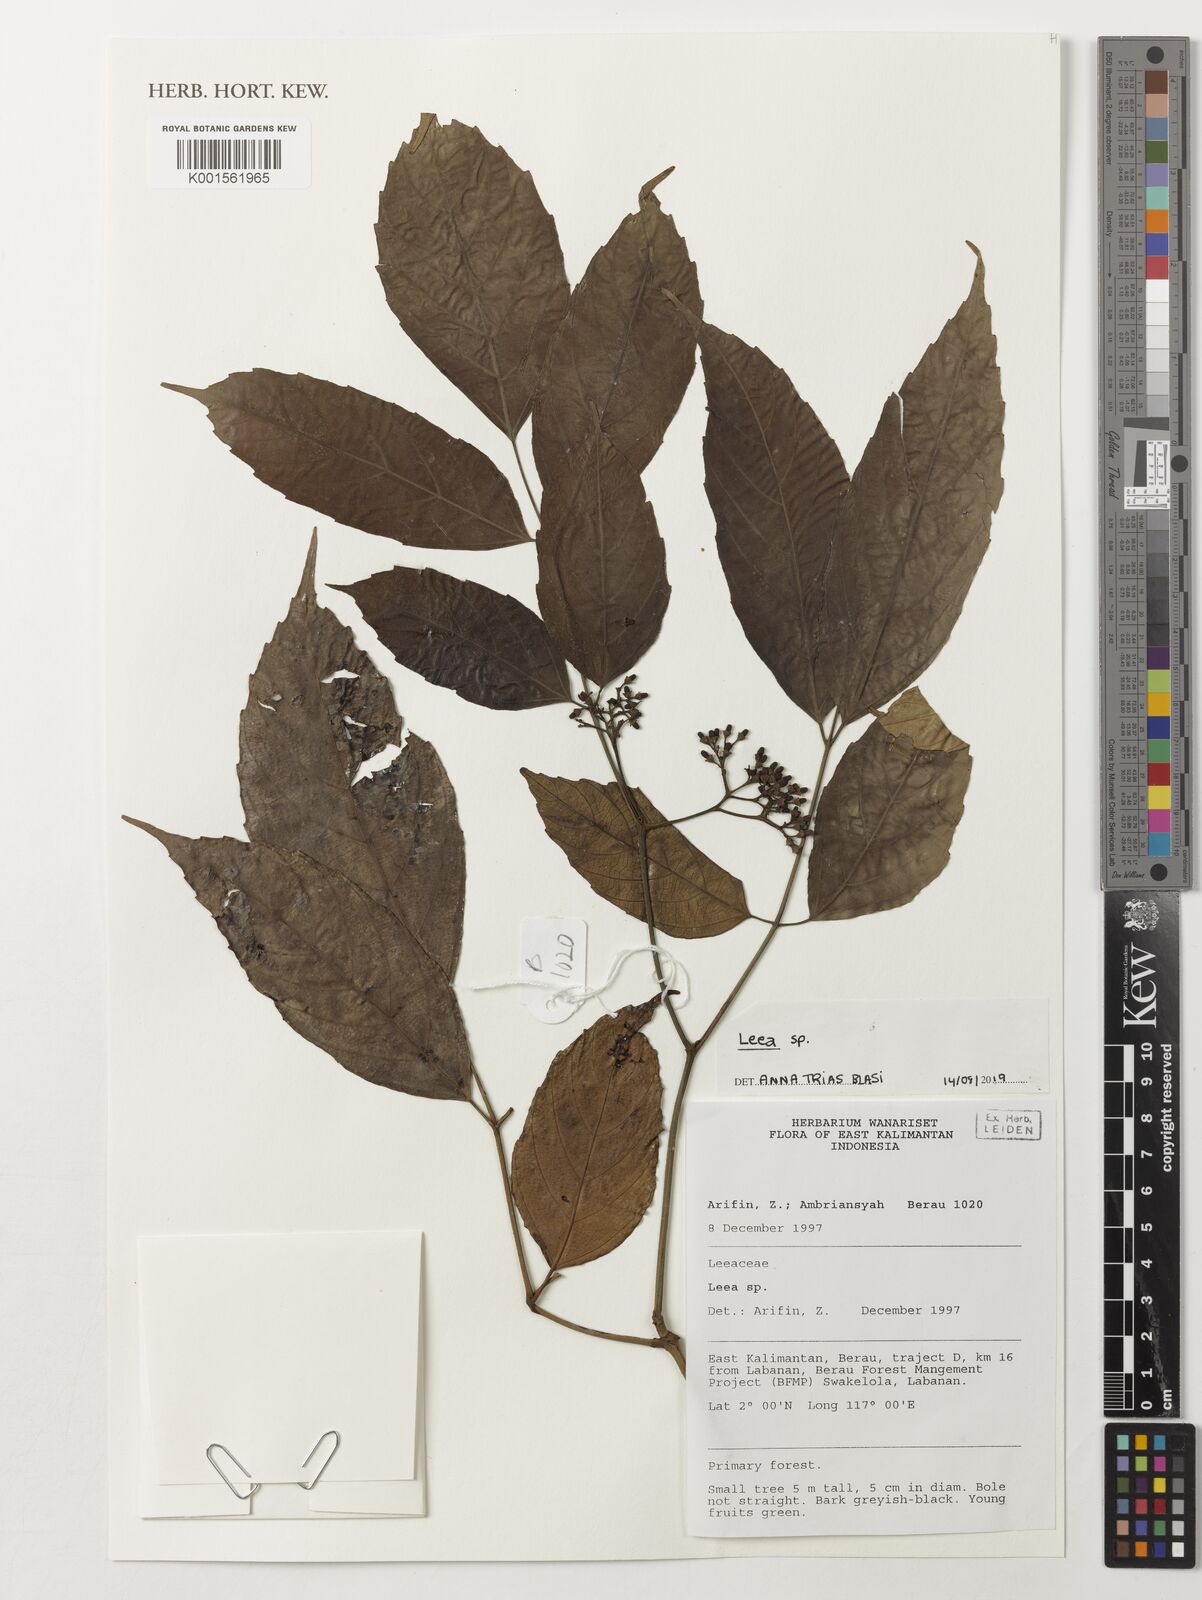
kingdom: Plantae
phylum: Tracheophyta
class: Magnoliopsida
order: Vitales
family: Vitaceae
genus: Leea
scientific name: Leea
